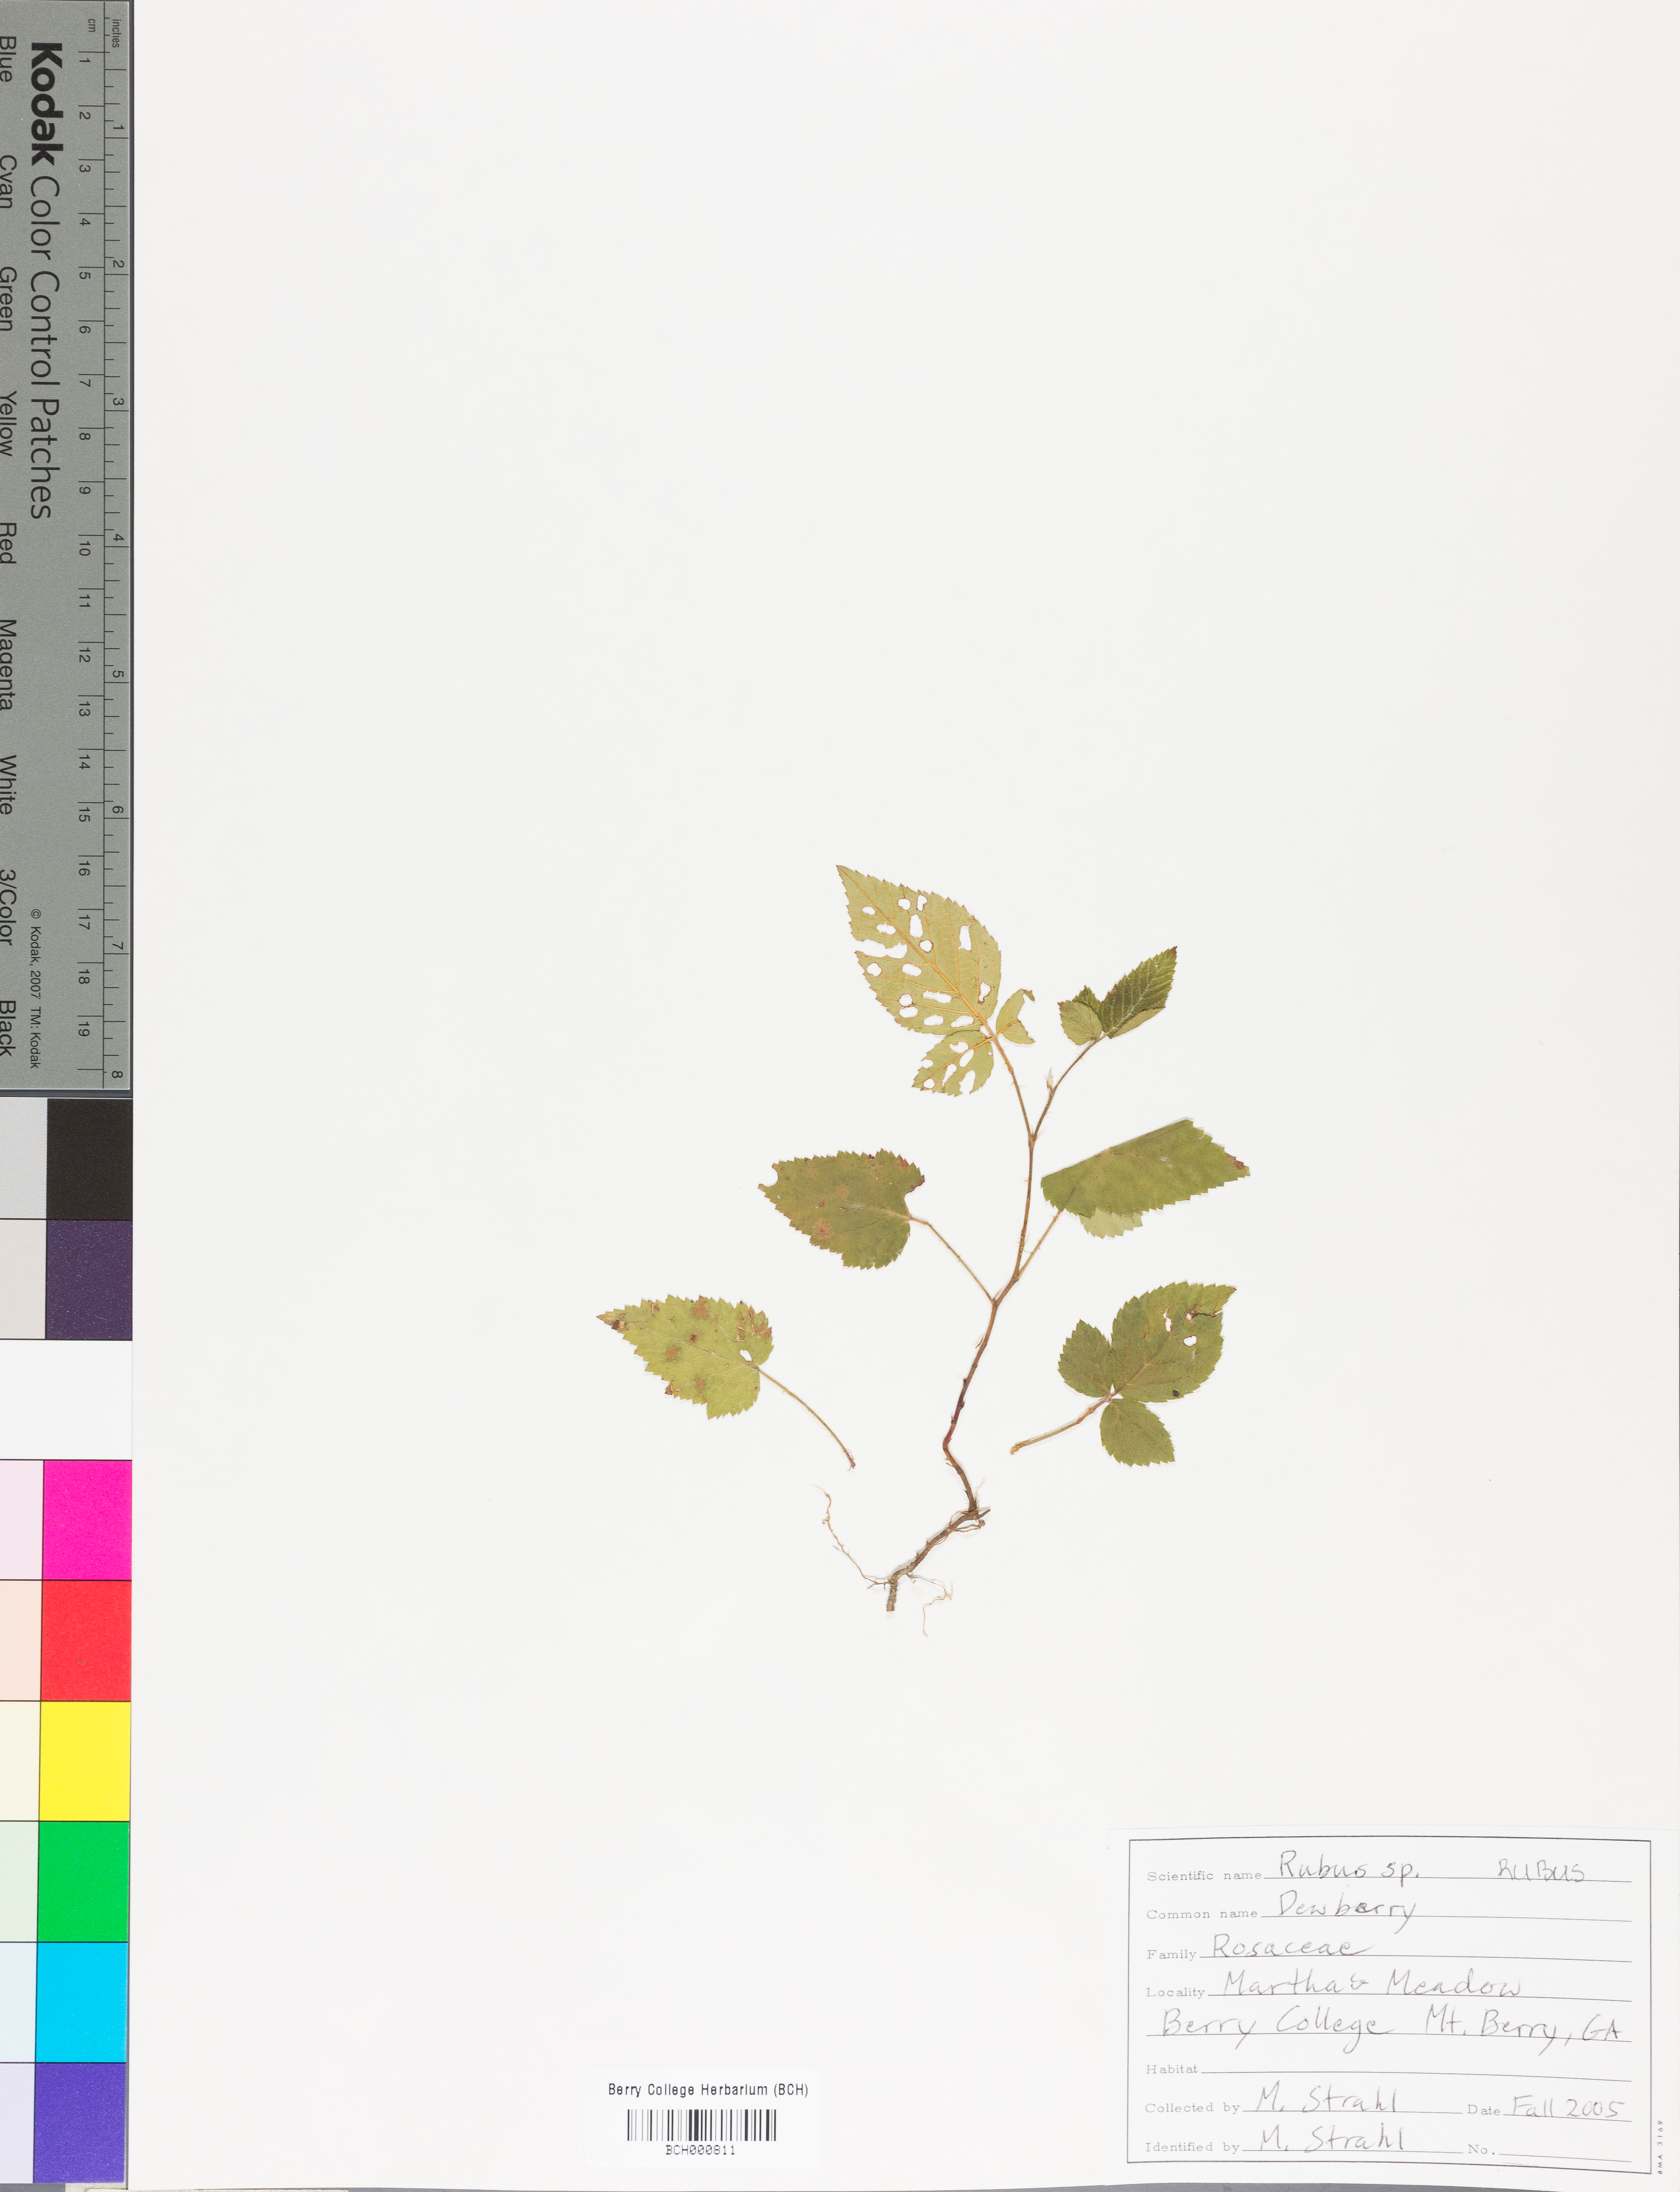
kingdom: Plantae
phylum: Tracheophyta
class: Magnoliopsida
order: Rosales
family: Rosaceae
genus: Rubus
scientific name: Rubus
